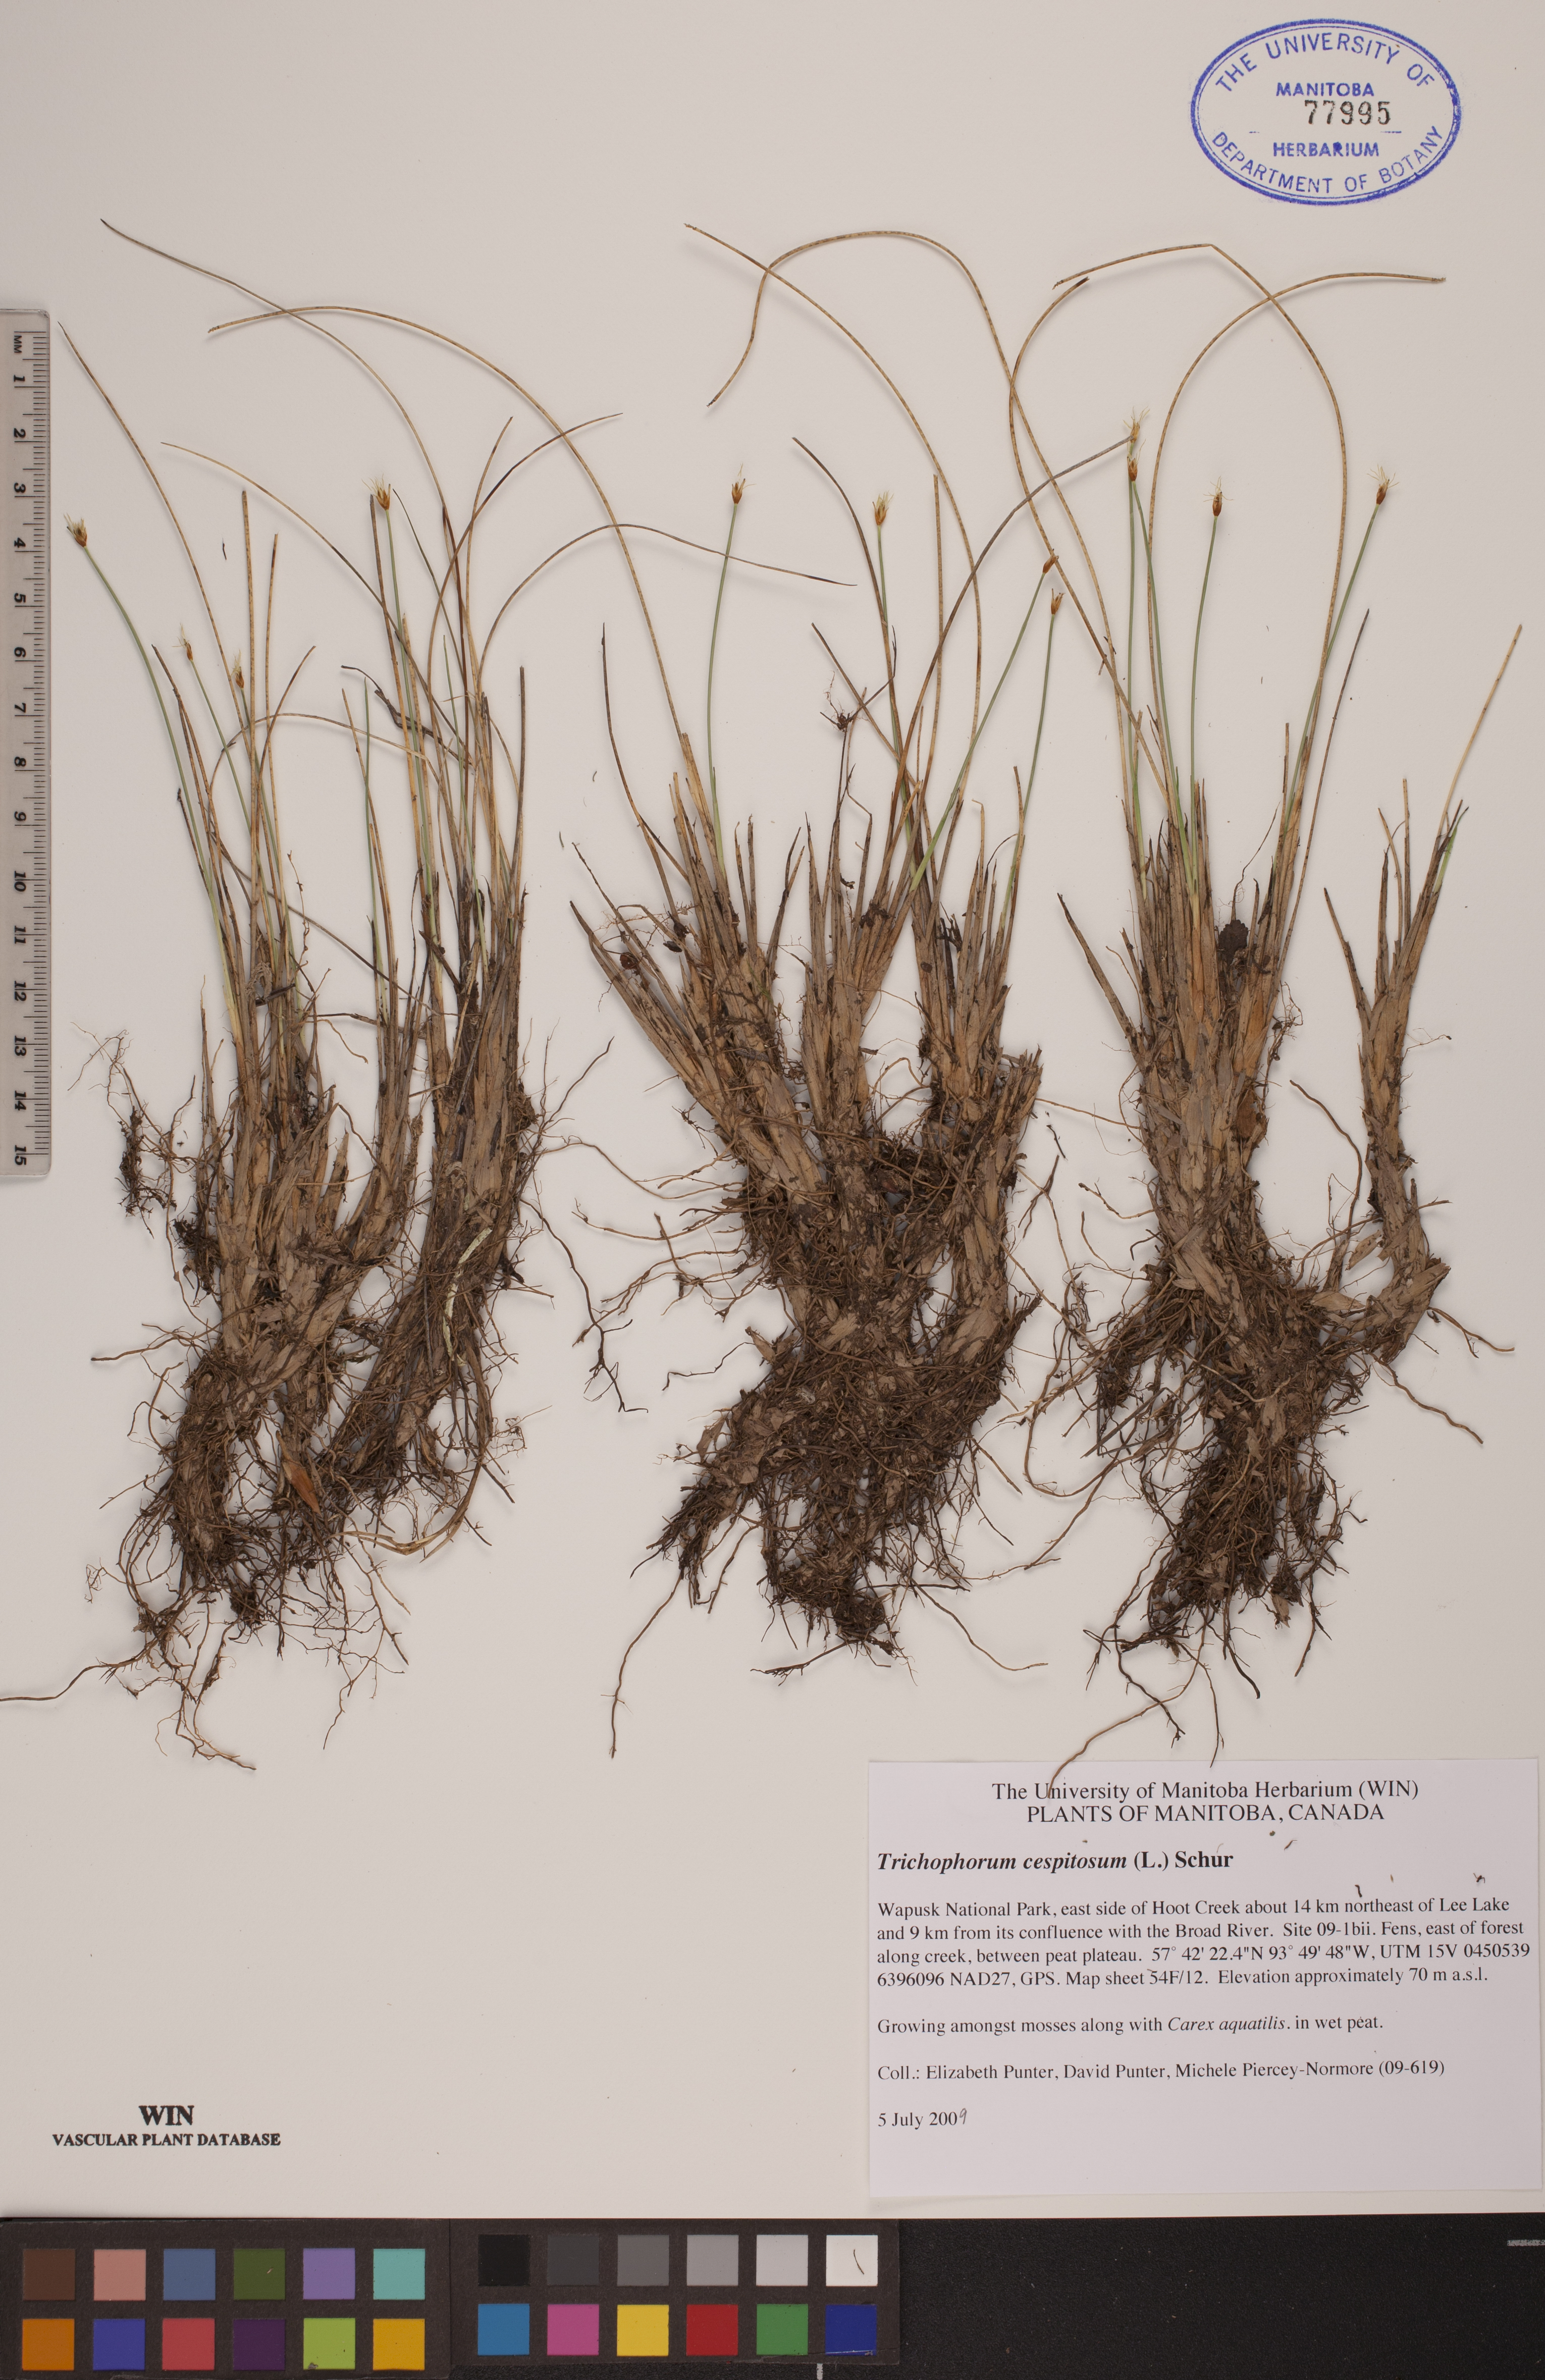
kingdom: Plantae
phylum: Tracheophyta
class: Liliopsida
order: Poales
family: Cyperaceae
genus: Trichophorum
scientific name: Trichophorum cespitosum
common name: Cespitose bulrush
